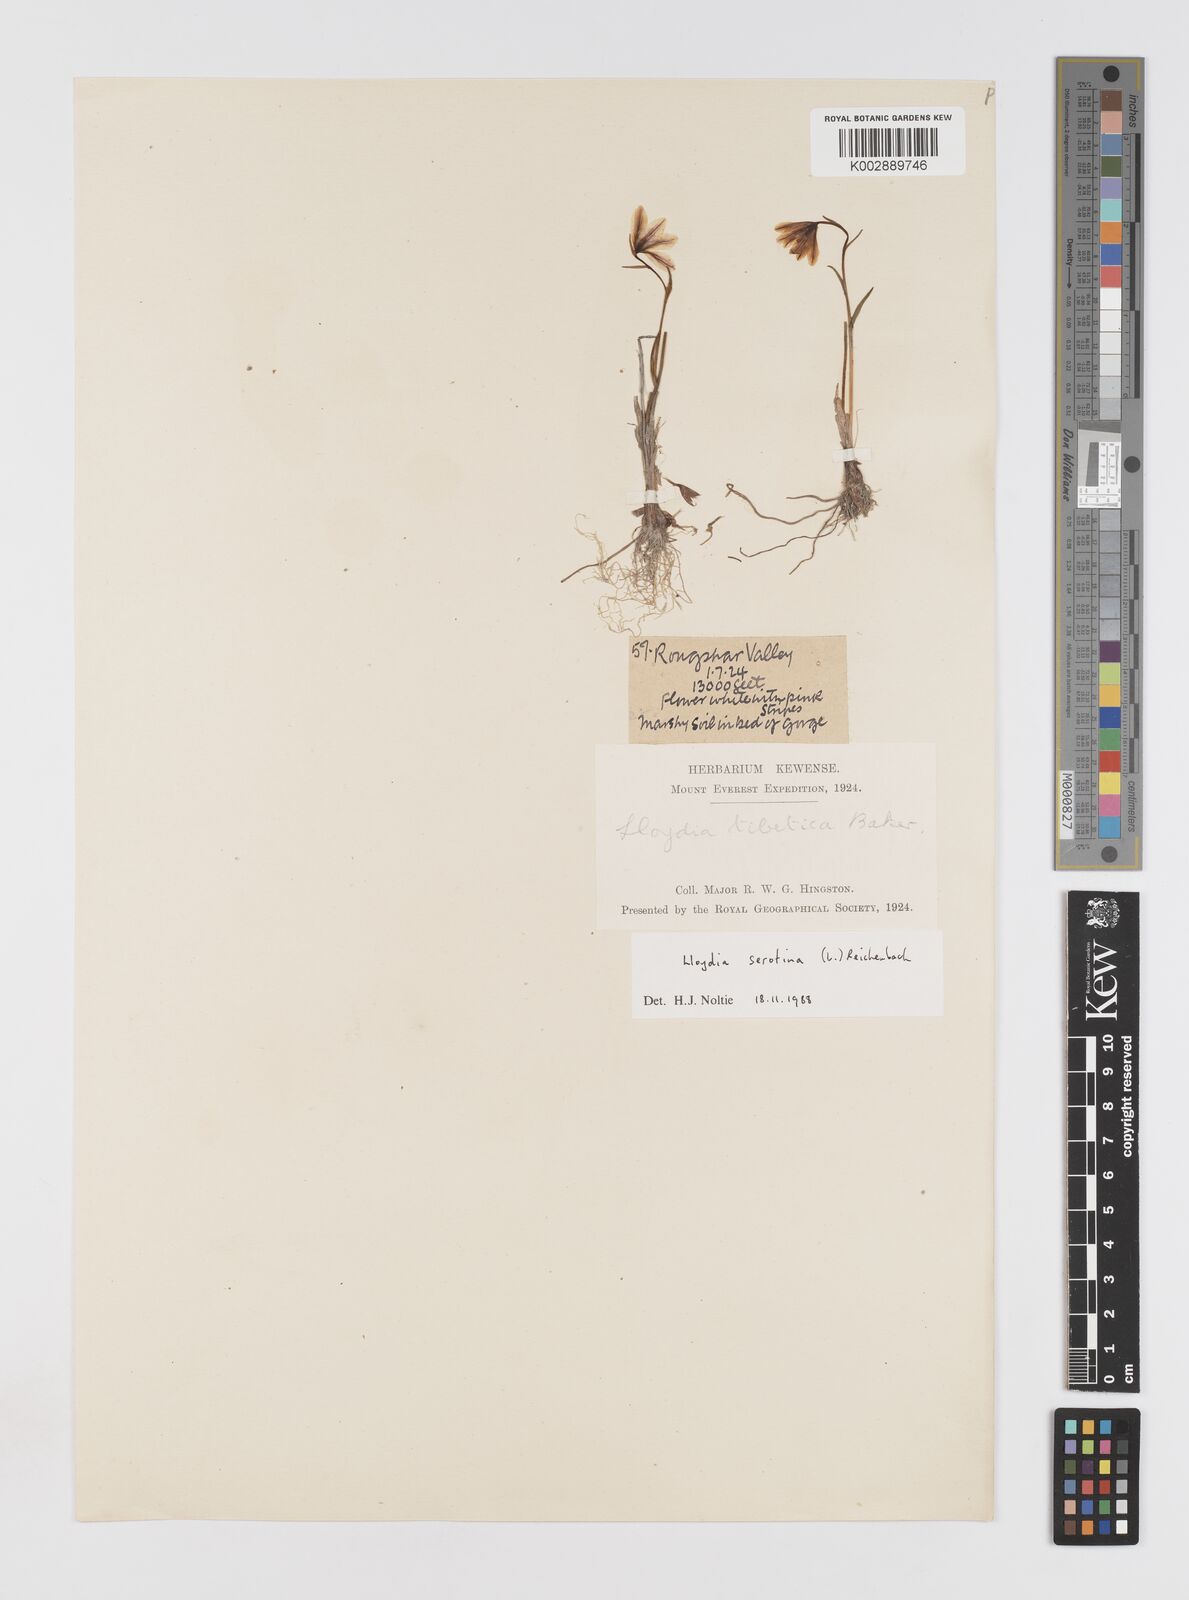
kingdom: Plantae
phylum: Tracheophyta
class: Liliopsida
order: Liliales
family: Liliaceae
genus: Gagea
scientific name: Gagea serotina
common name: Snowdon lily
